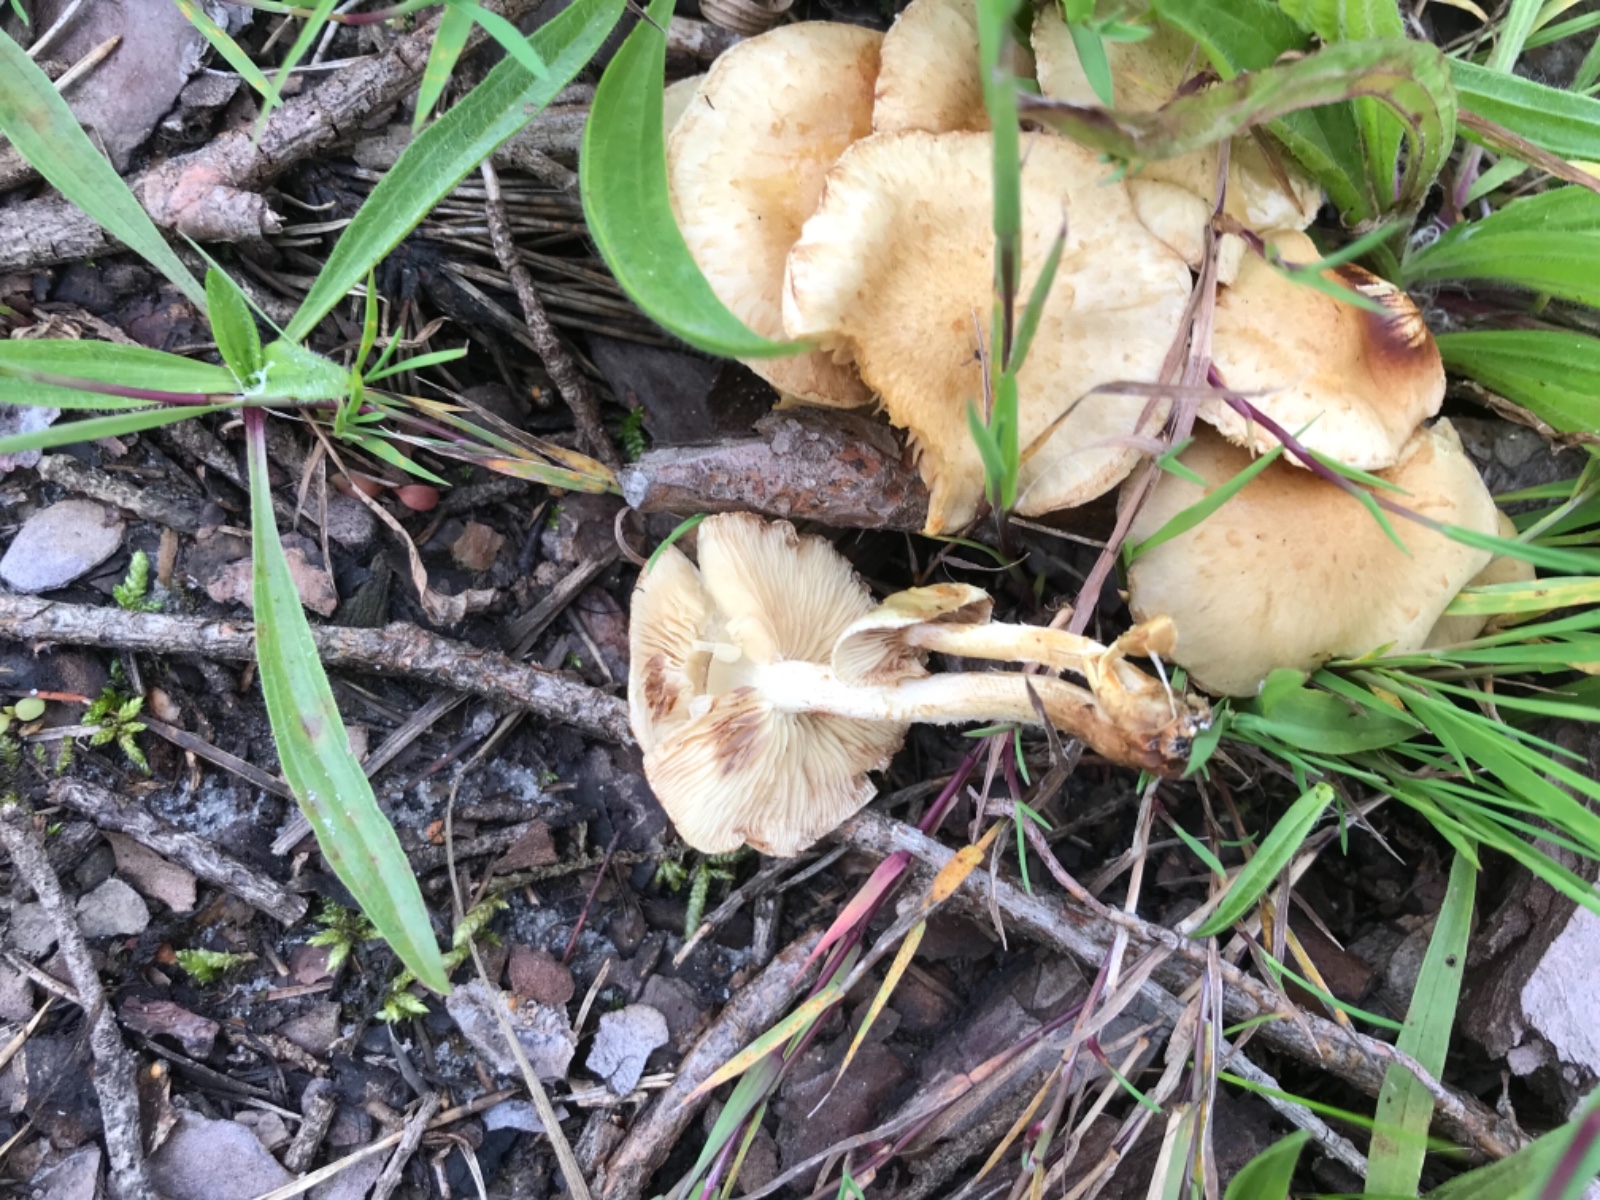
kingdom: Fungi
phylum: Basidiomycota
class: Agaricomycetes
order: Agaricales
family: Strophariaceae
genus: Pholiota
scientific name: Pholiota gummosa
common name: grøngul skælhat
